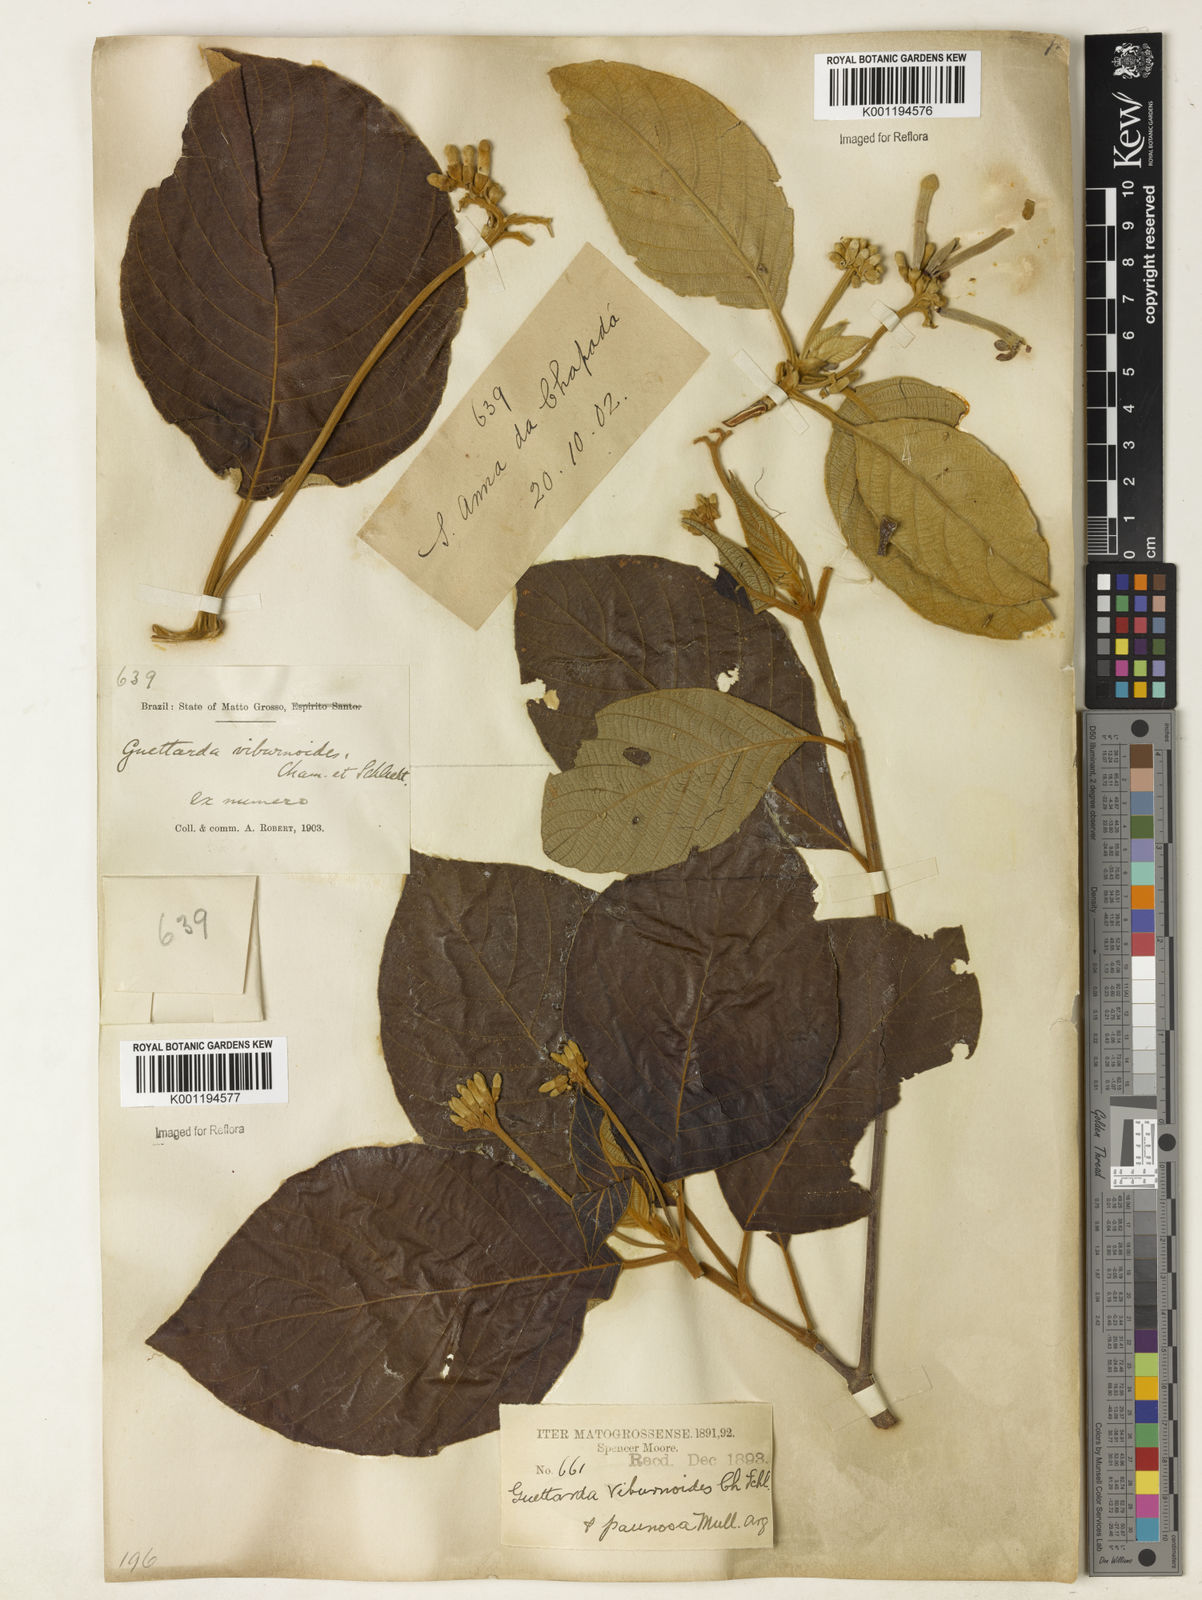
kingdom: Plantae
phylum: Tracheophyta
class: Magnoliopsida
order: Gentianales
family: Rubiaceae
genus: Guettarda
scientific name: Guettarda viburnoides
